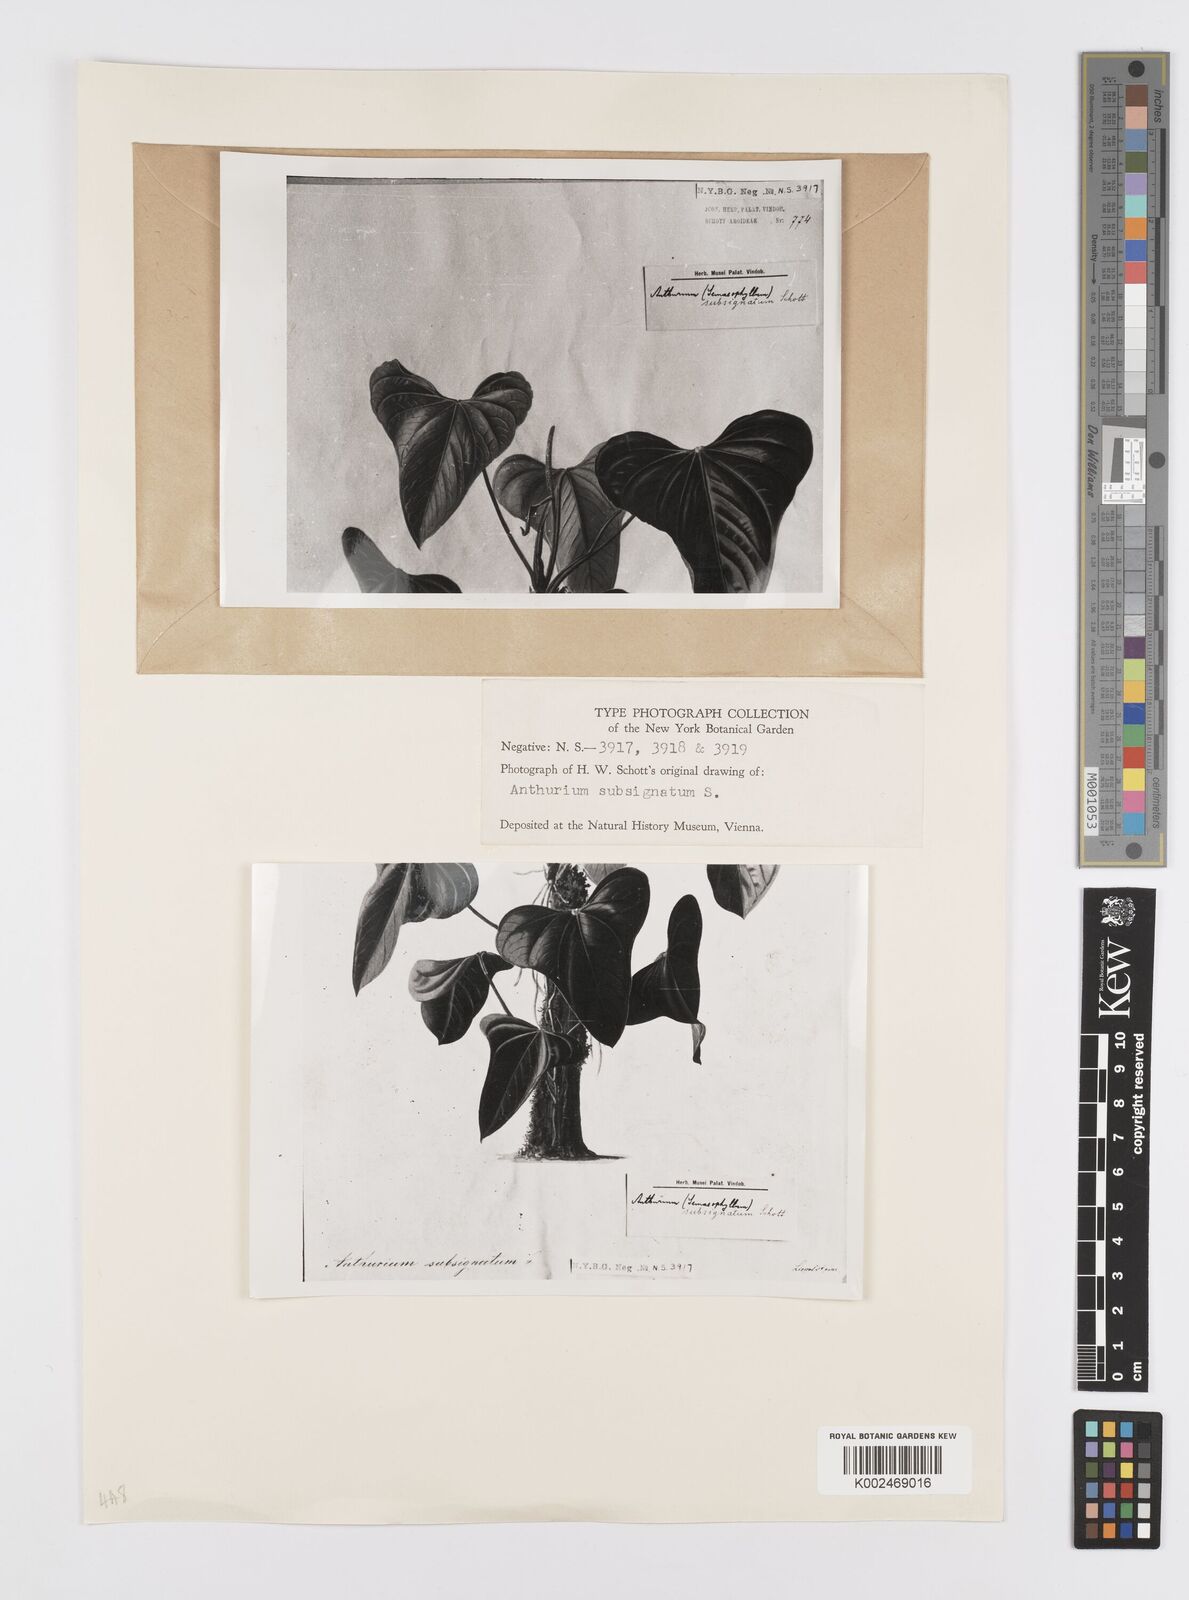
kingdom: Plantae
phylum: Tracheophyta
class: Liliopsida
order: Alismatales
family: Araceae
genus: Anthurium
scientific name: Anthurium subsignatum
